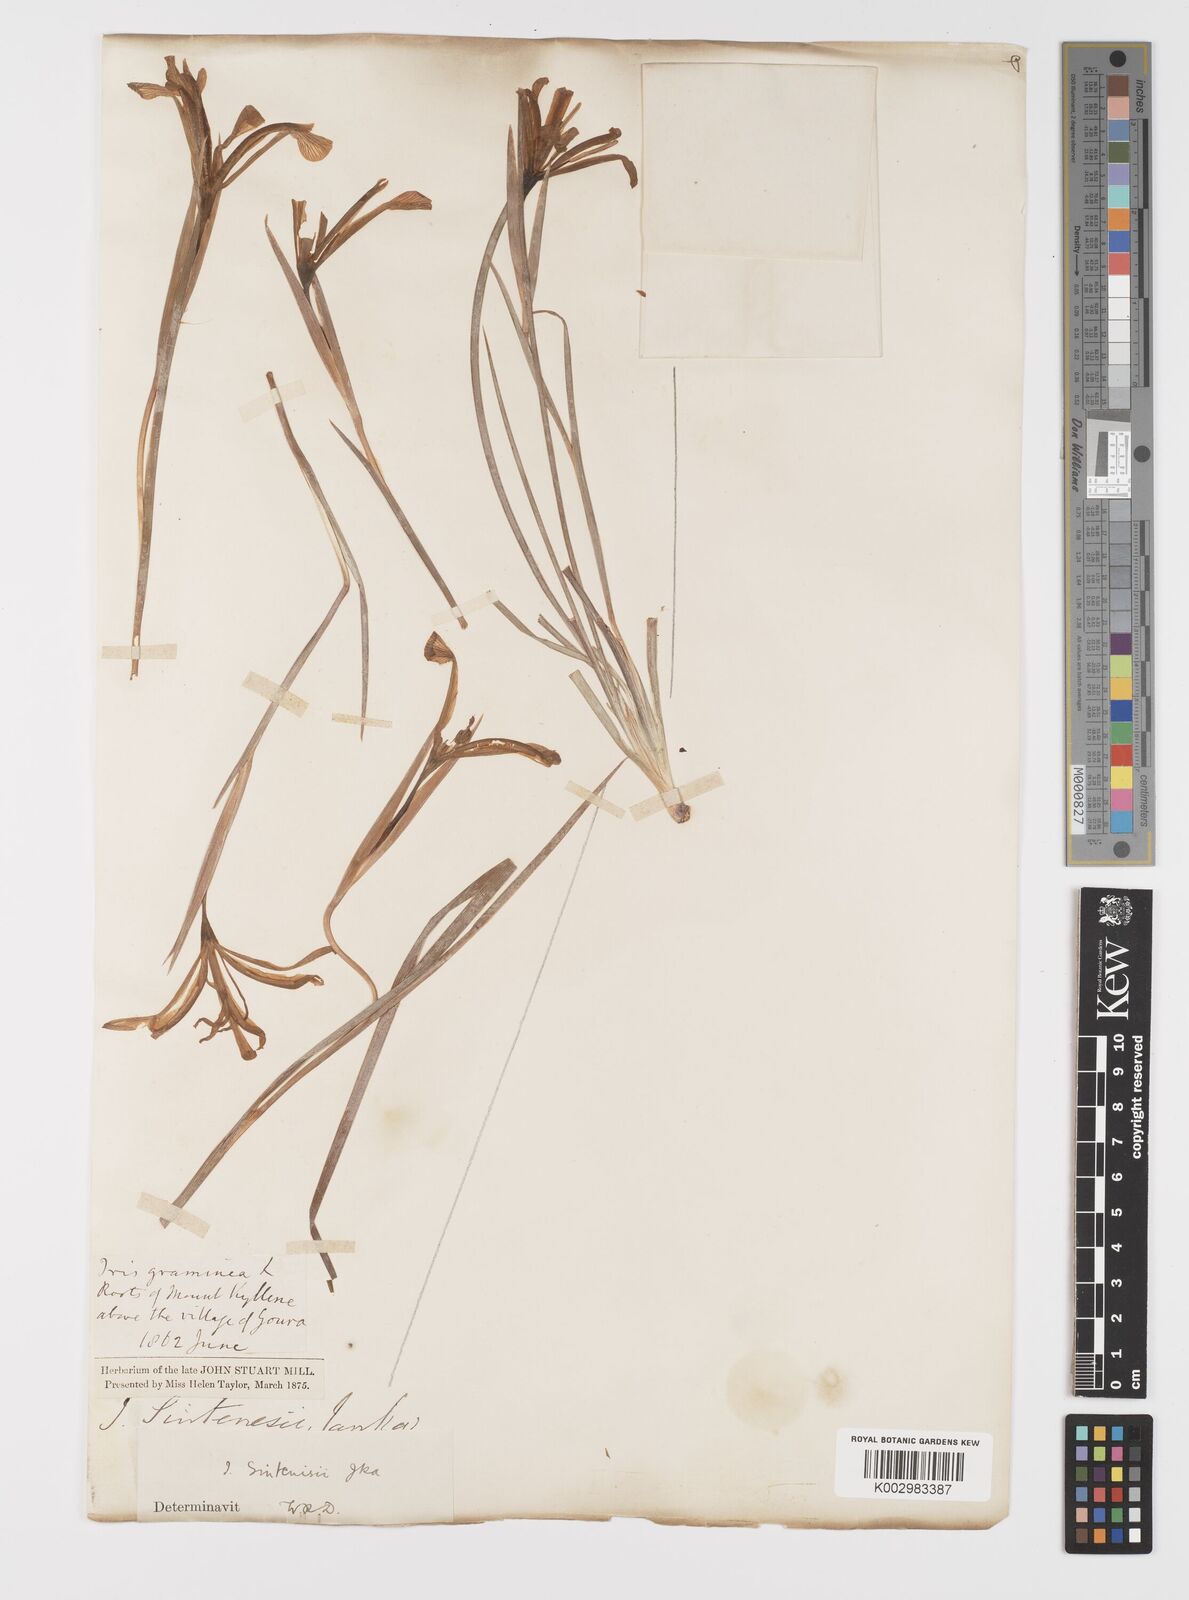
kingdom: Plantae
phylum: Tracheophyta
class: Liliopsida
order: Asparagales
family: Iridaceae
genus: Iris
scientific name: Iris sintenisii
